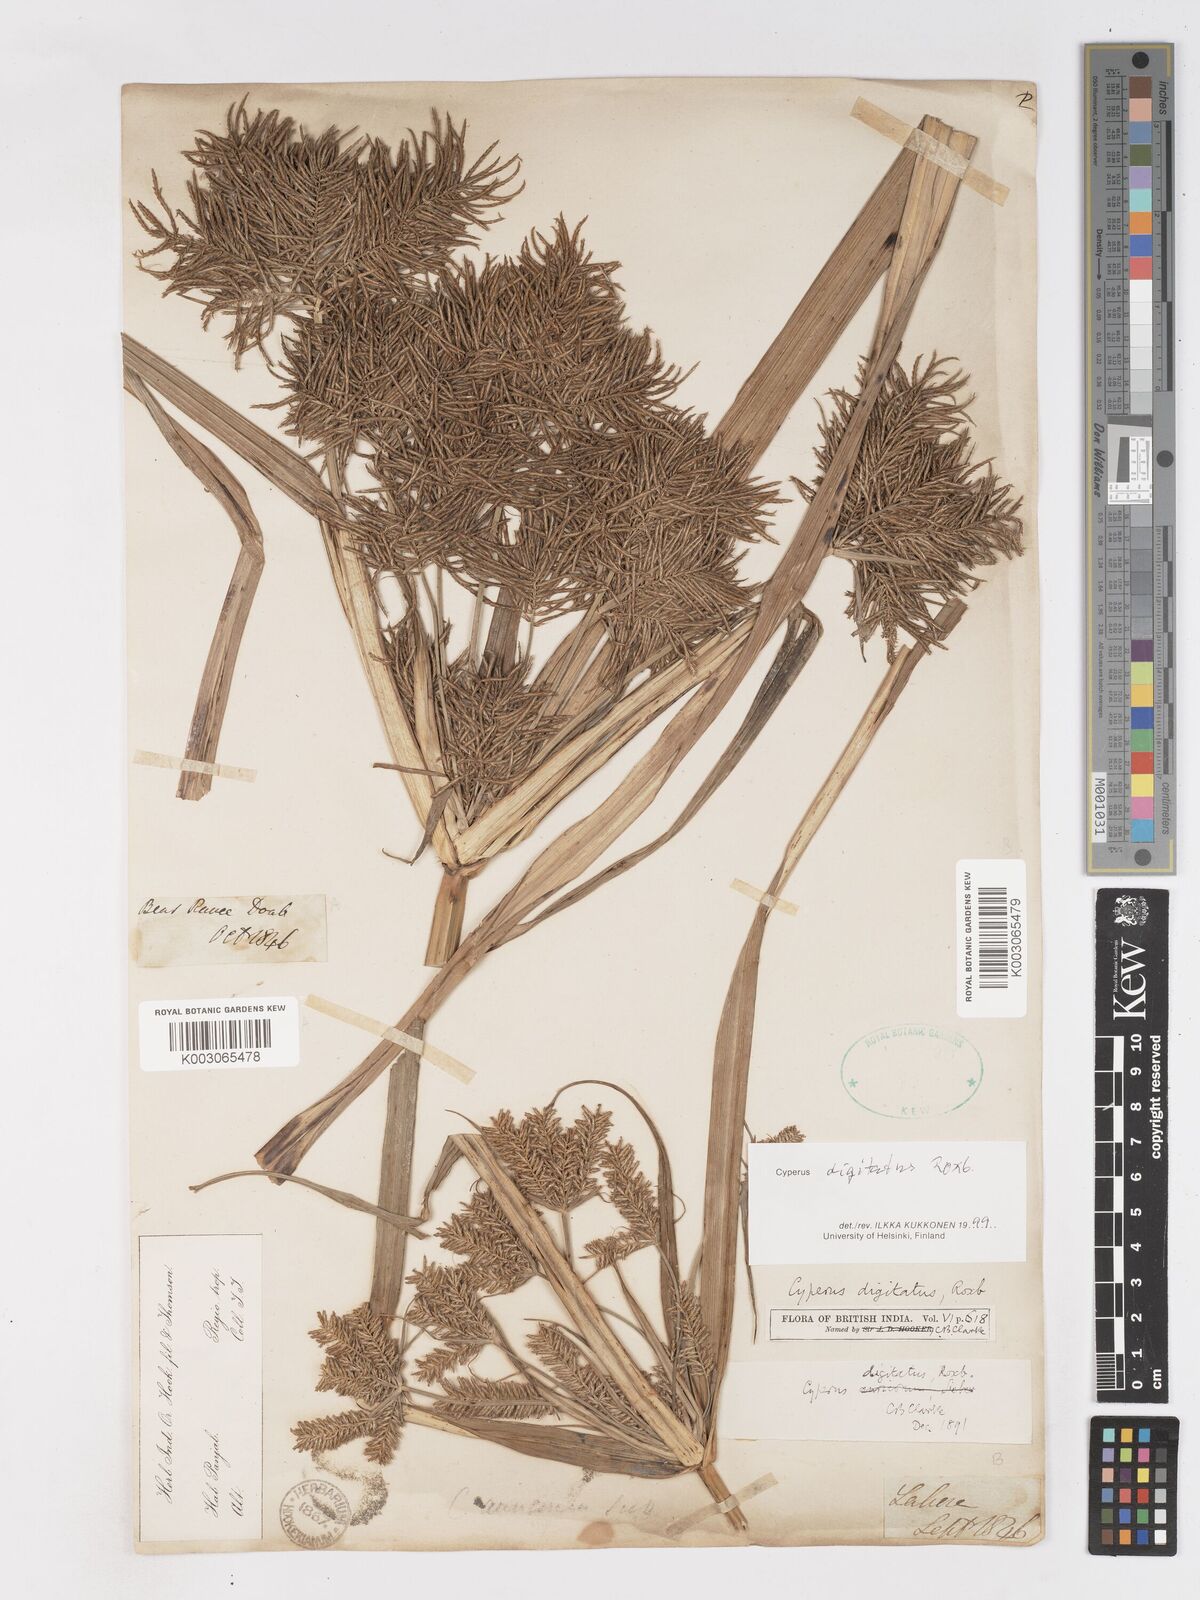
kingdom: Plantae
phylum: Tracheophyta
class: Liliopsida
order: Poales
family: Cyperaceae
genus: Cyperus
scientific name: Cyperus digitatus
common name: Finger flatsedge
